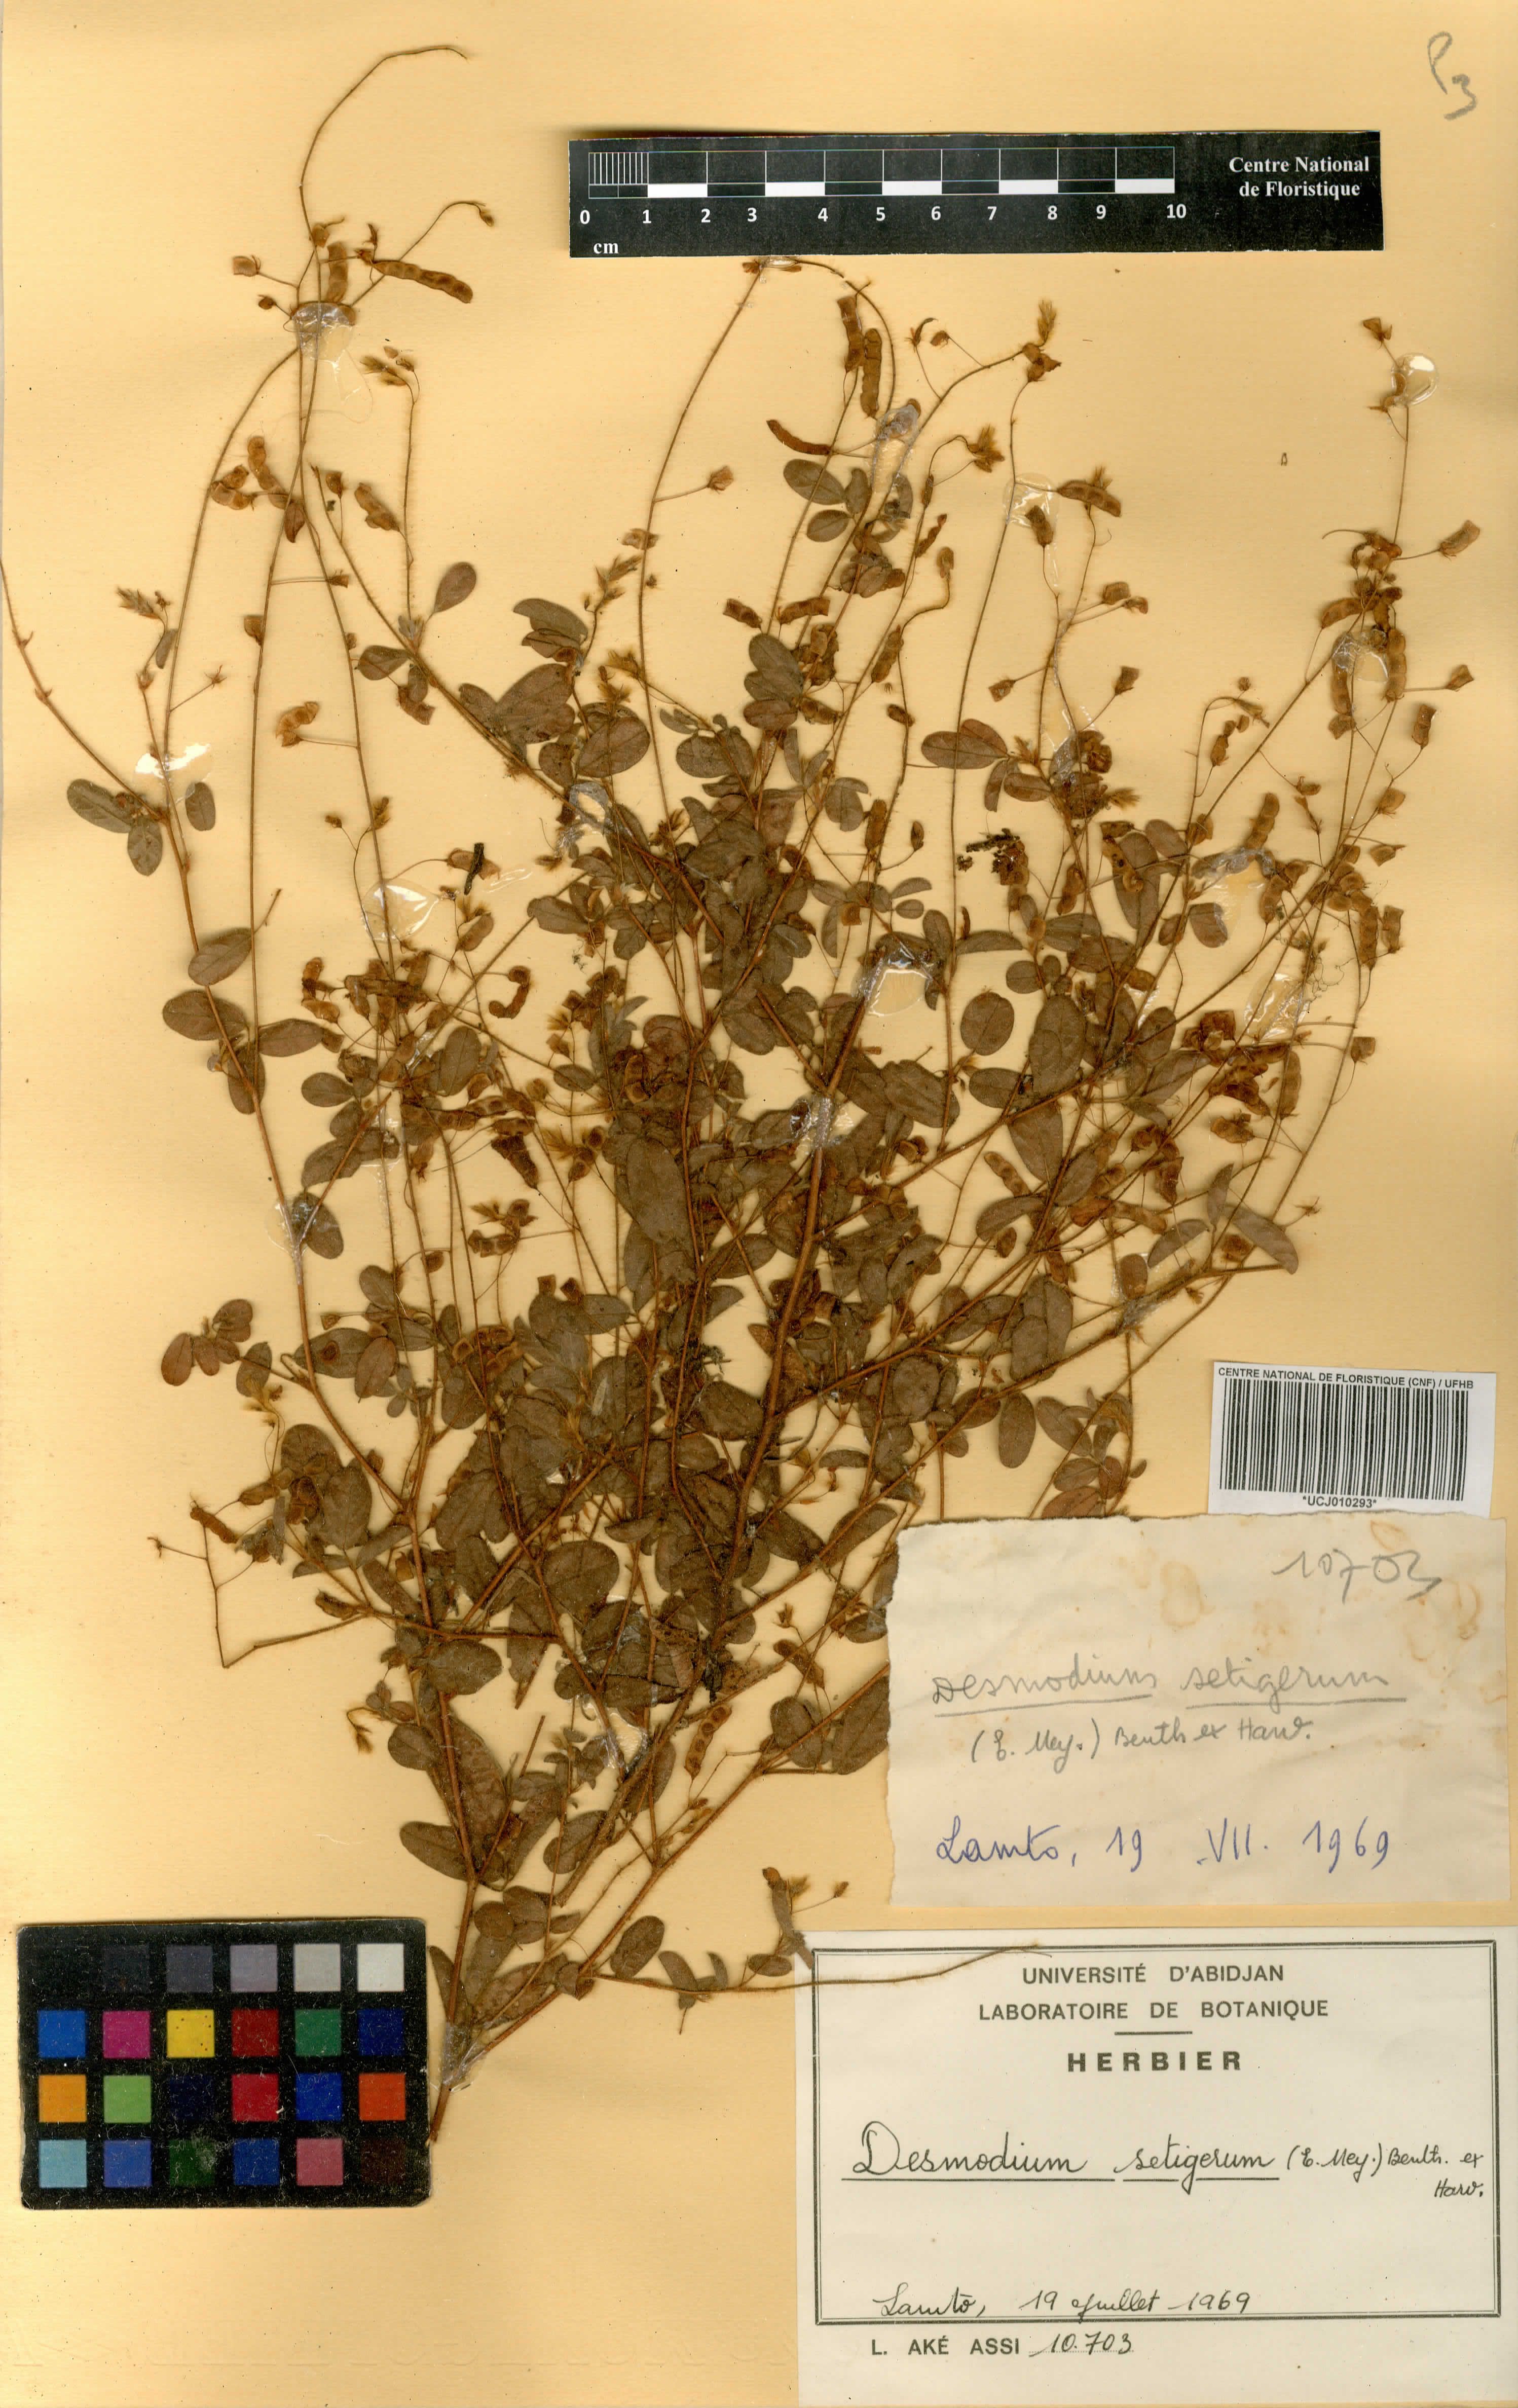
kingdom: Plantae
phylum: Tracheophyta
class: Magnoliopsida
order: Fabales
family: Fabaceae
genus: Grona
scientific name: Grona setigera
